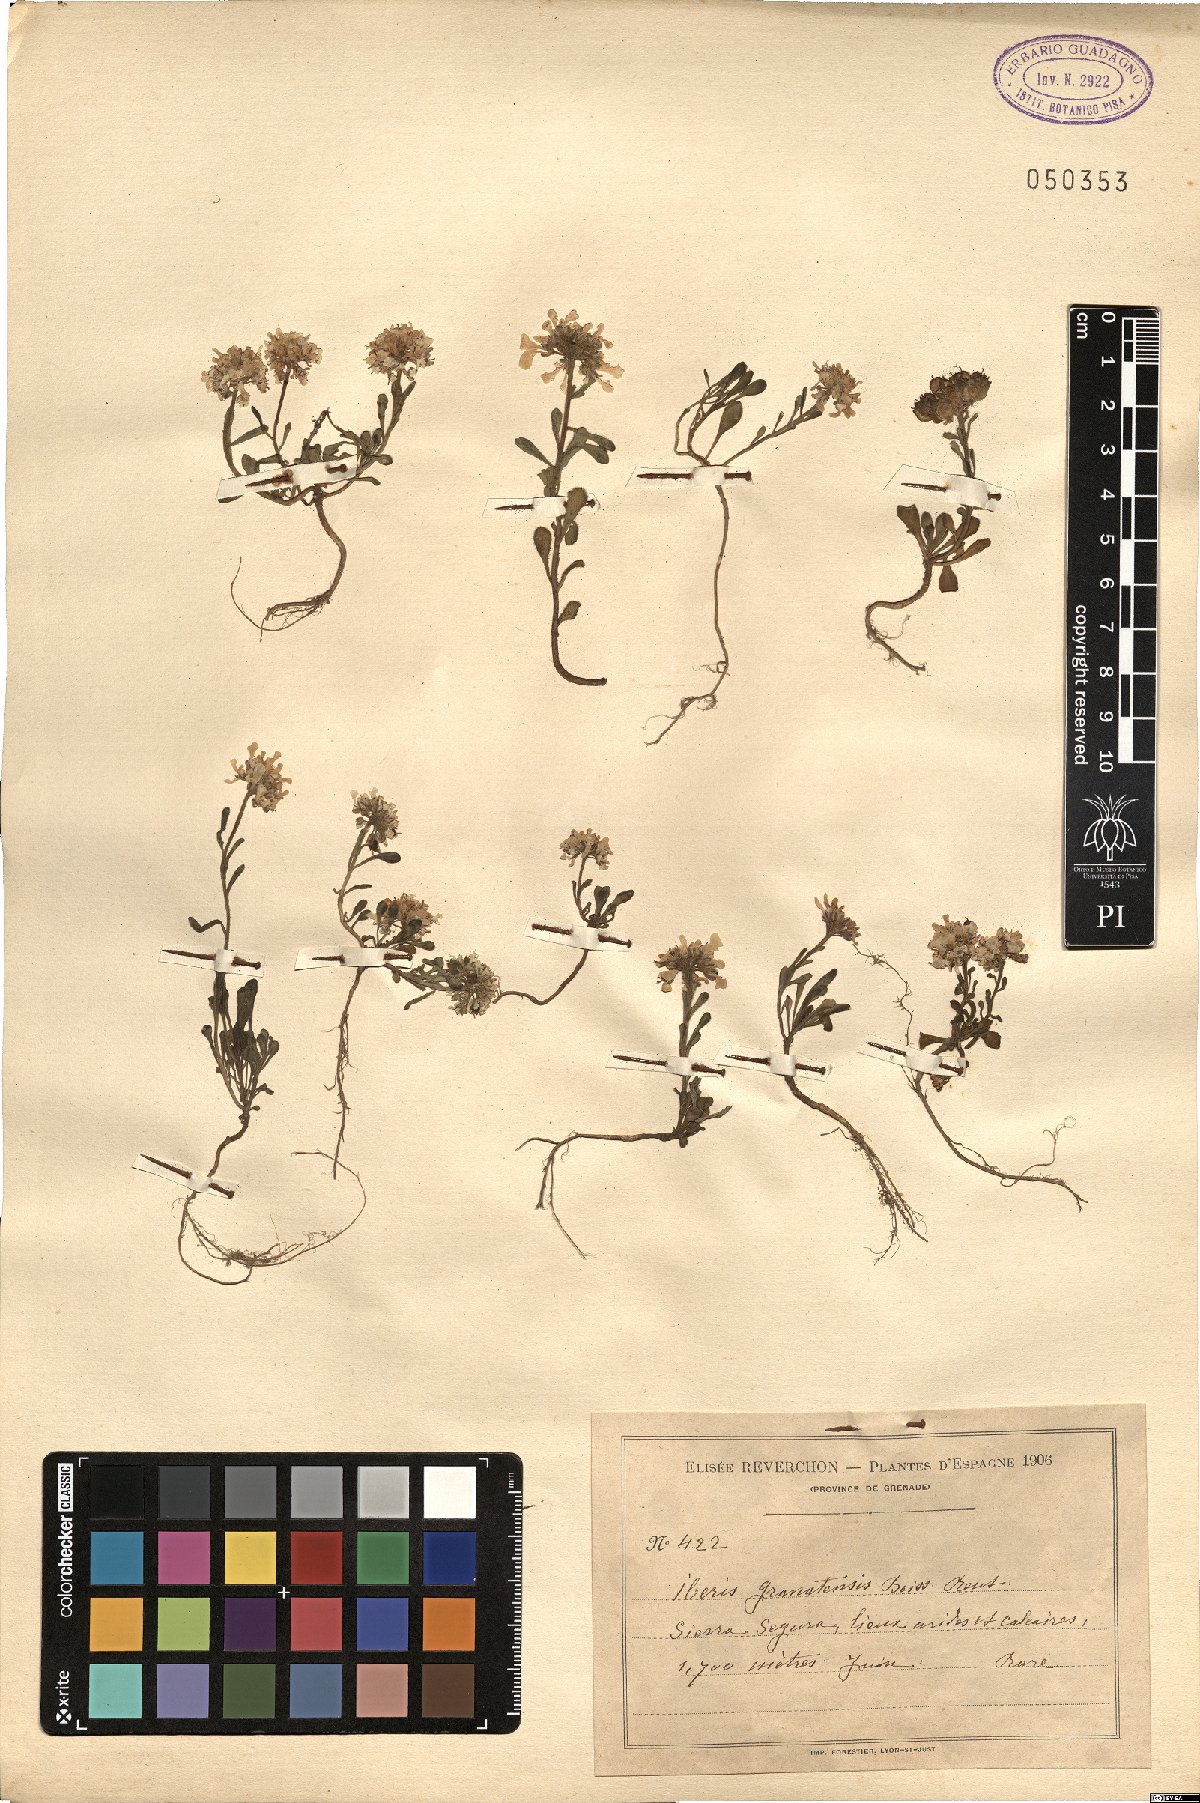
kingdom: Plantae
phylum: Tracheophyta
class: Magnoliopsida
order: Brassicales
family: Brassicaceae
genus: Iberis
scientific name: Iberis carnosa
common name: Pruit's candytuft
